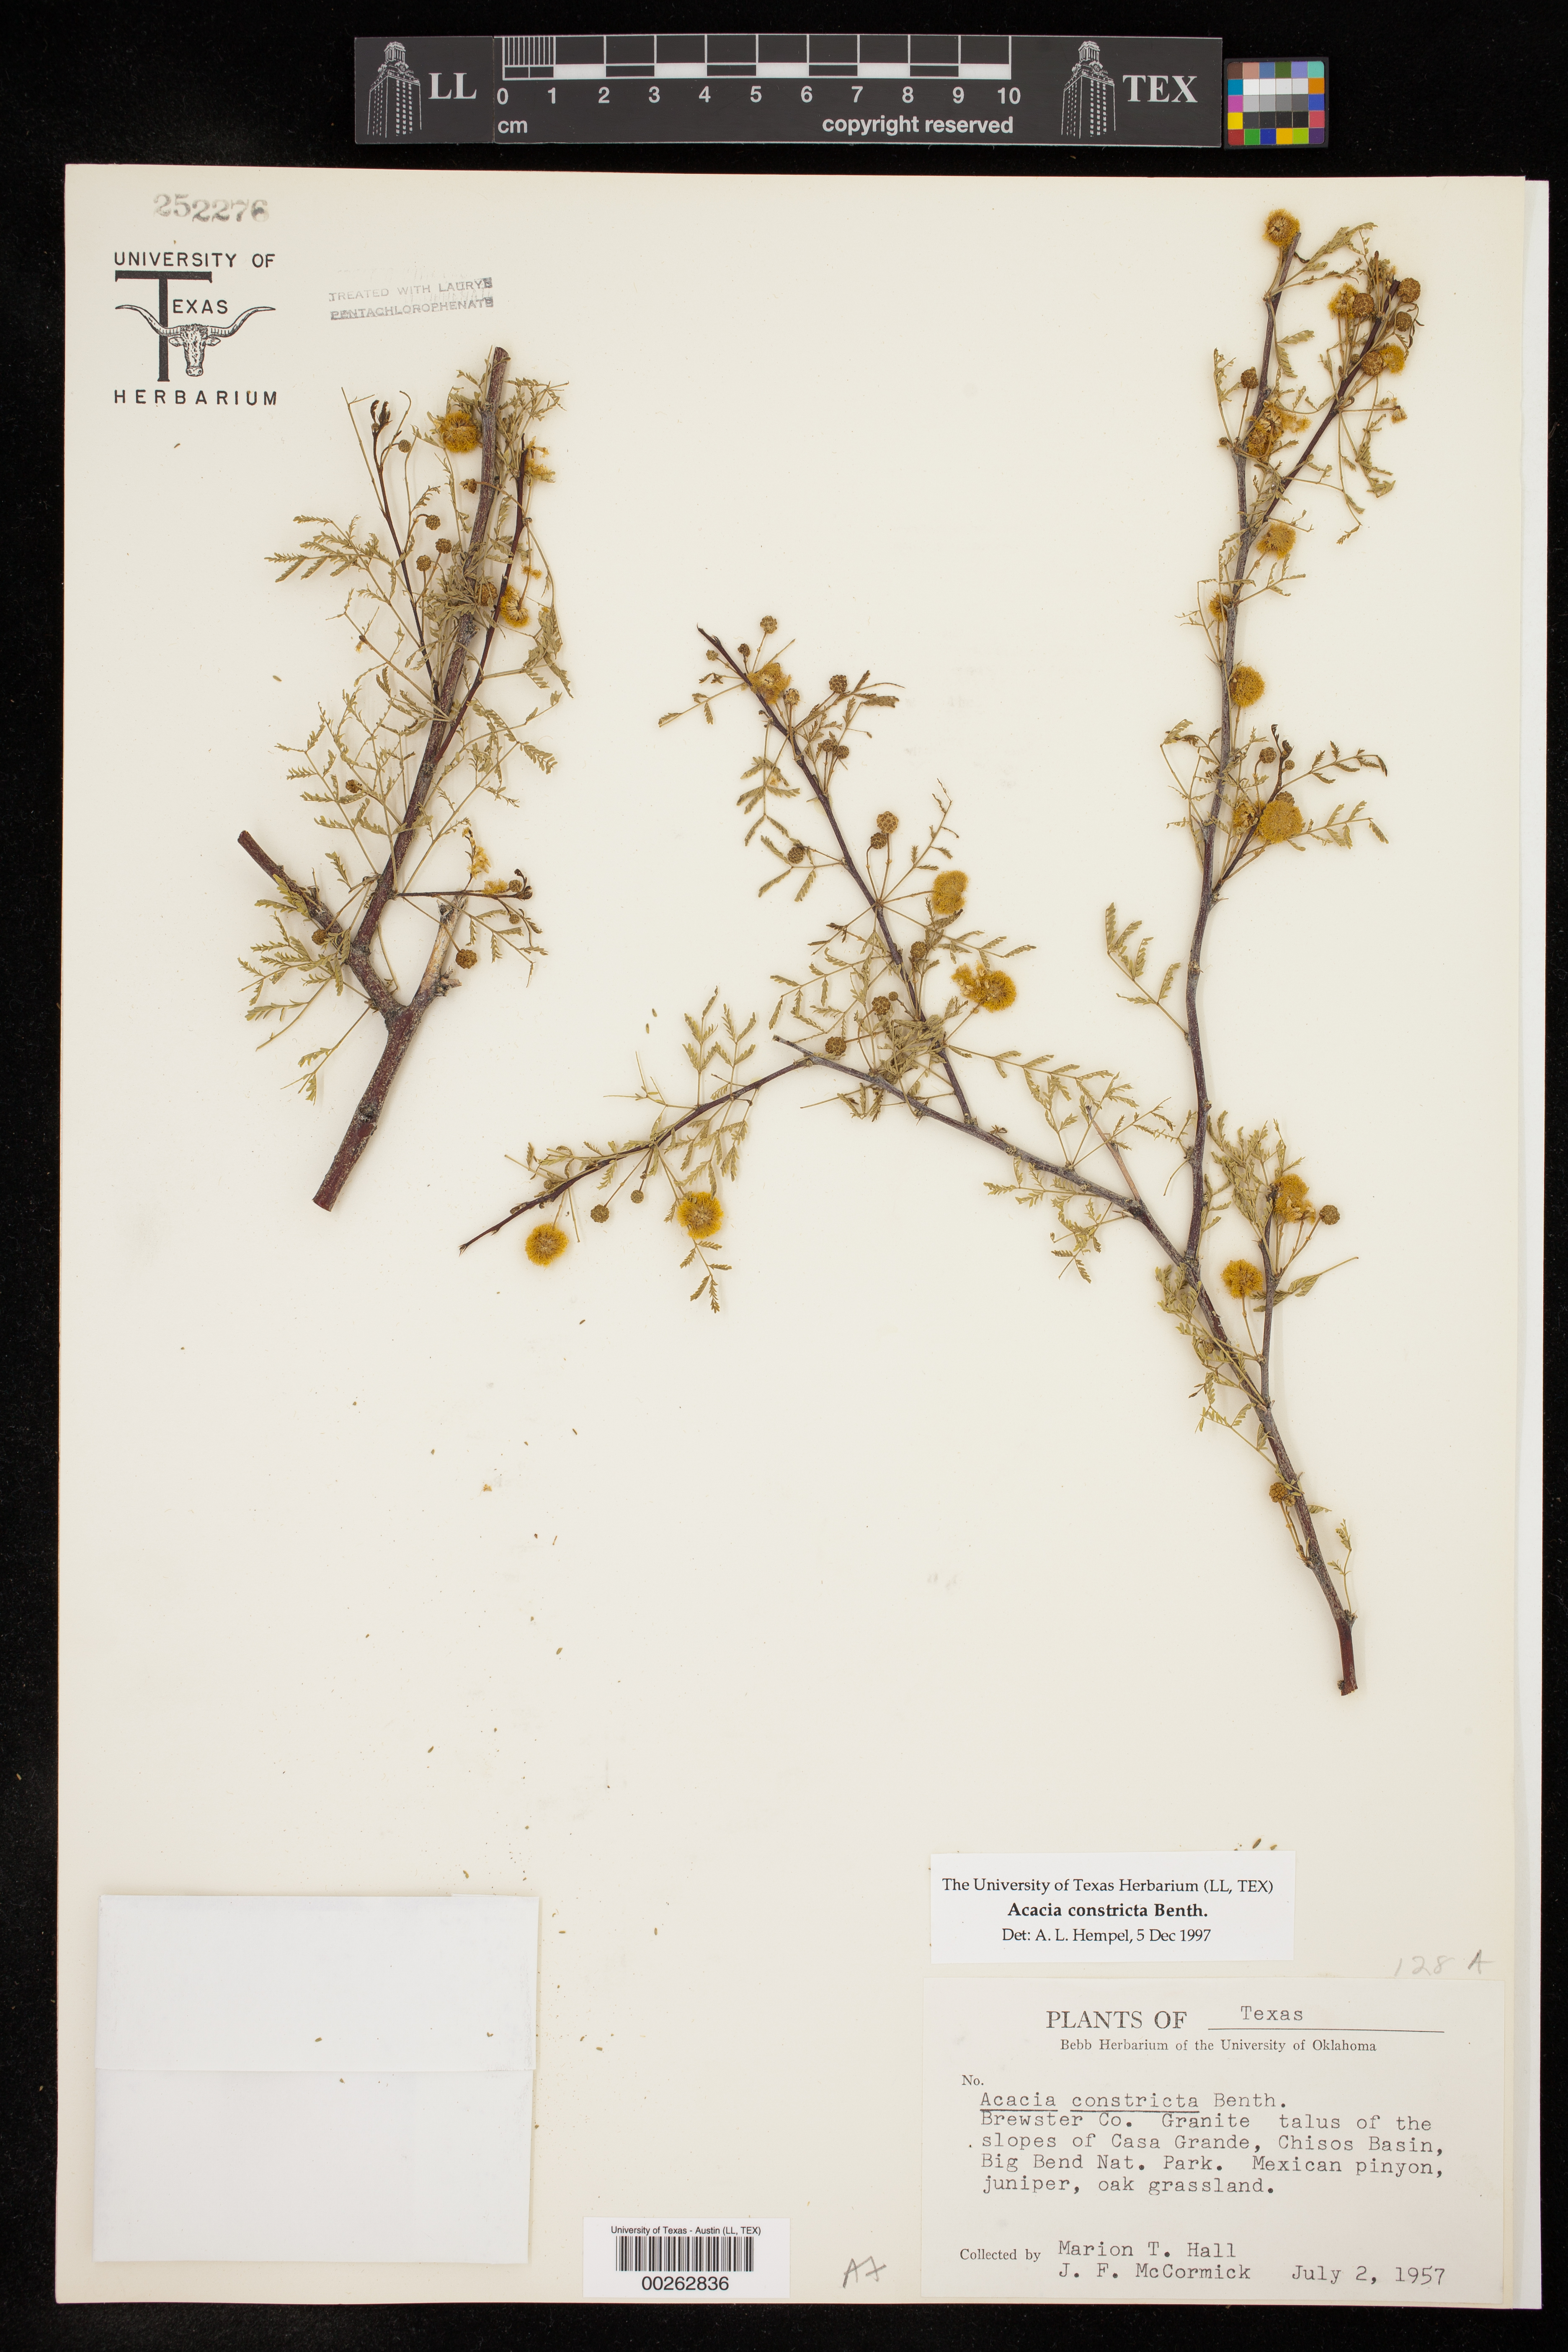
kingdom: Plantae
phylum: Tracheophyta
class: Magnoliopsida
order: Fabales
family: Fabaceae
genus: Vachellia
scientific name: Vachellia constricta
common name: Mescat acacia
